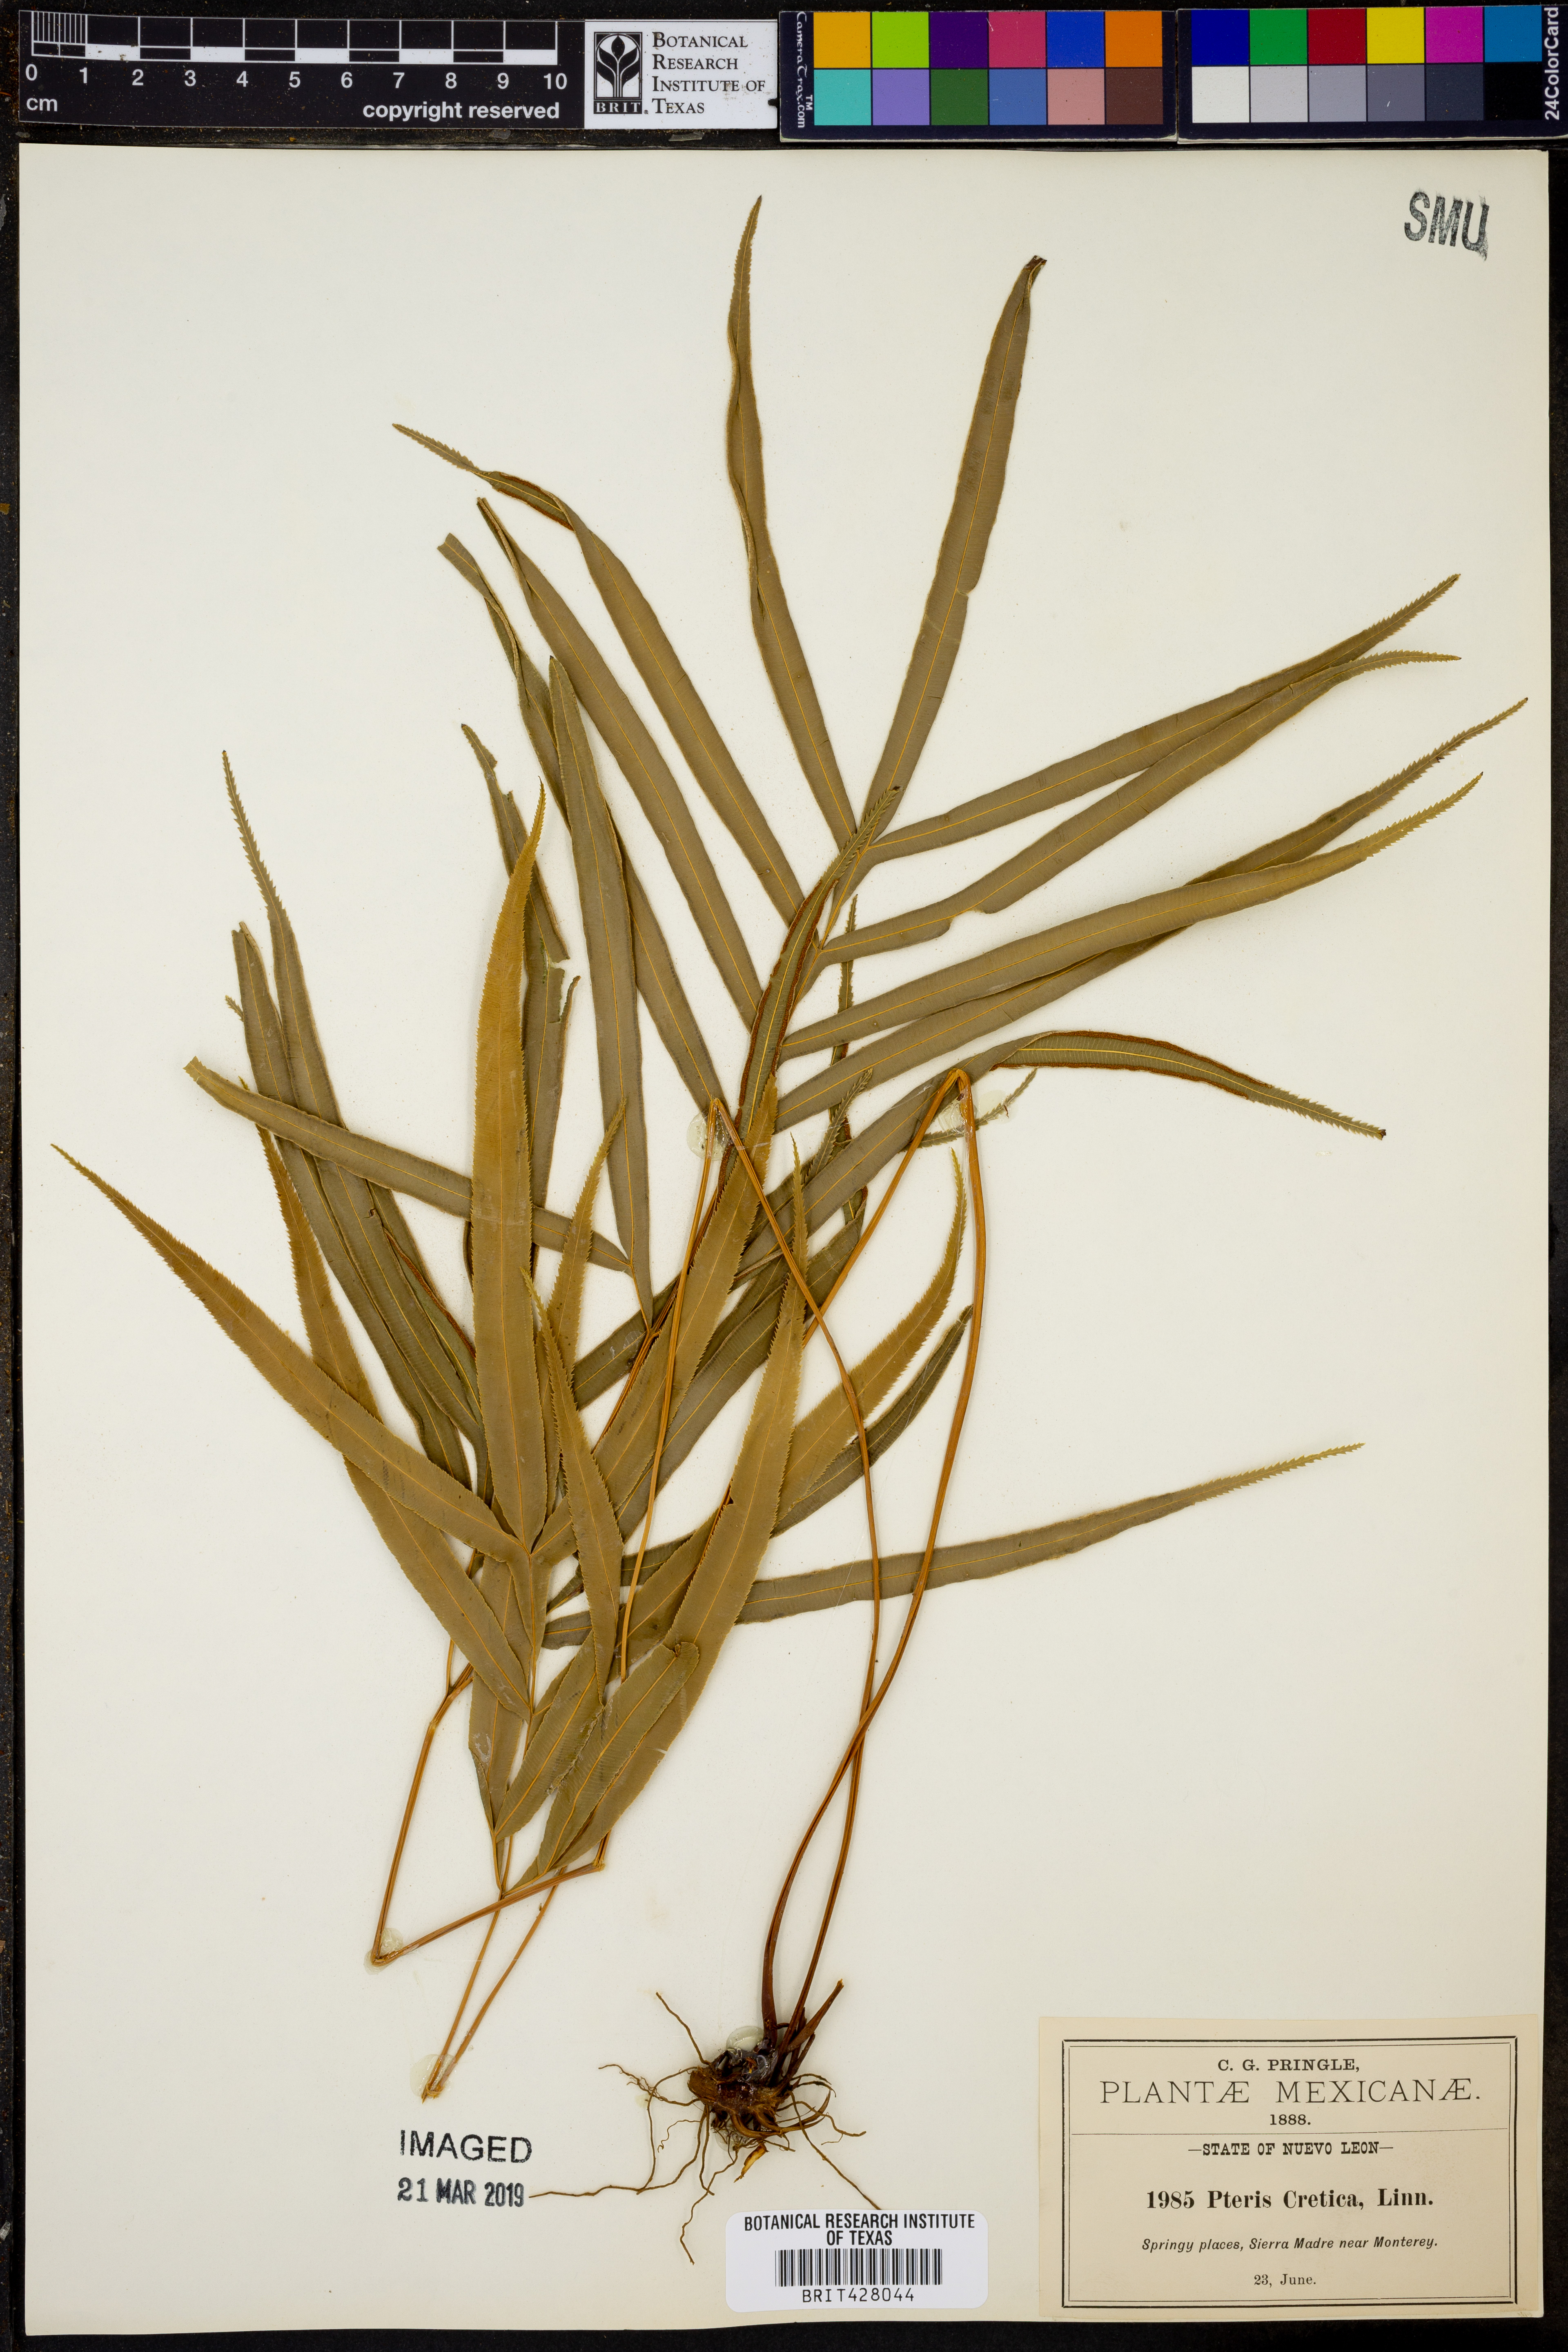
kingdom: Plantae
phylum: Tracheophyta
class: Polypodiopsida
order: Polypodiales
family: Pteridaceae
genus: Pteris
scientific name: Pteris cretica
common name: Ribbon fern
